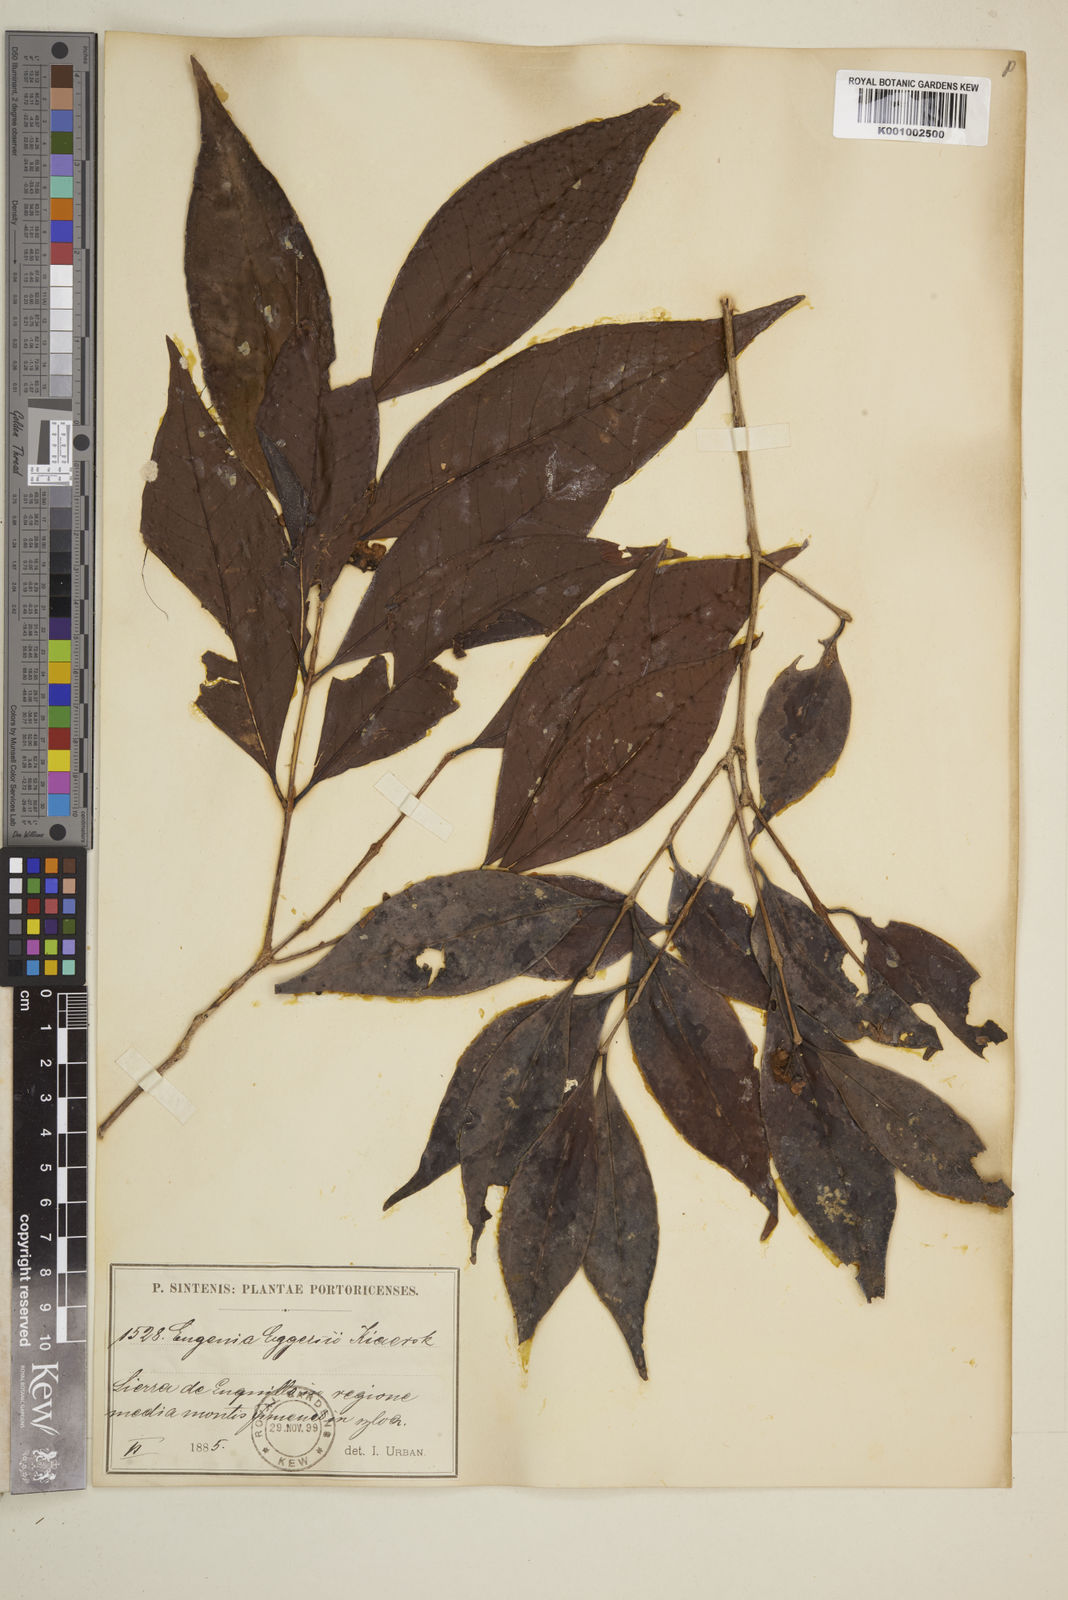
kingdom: Plantae
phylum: Tracheophyta
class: Magnoliopsida
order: Myrtales
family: Myrtaceae
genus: Eugenia
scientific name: Eugenia eggersii
